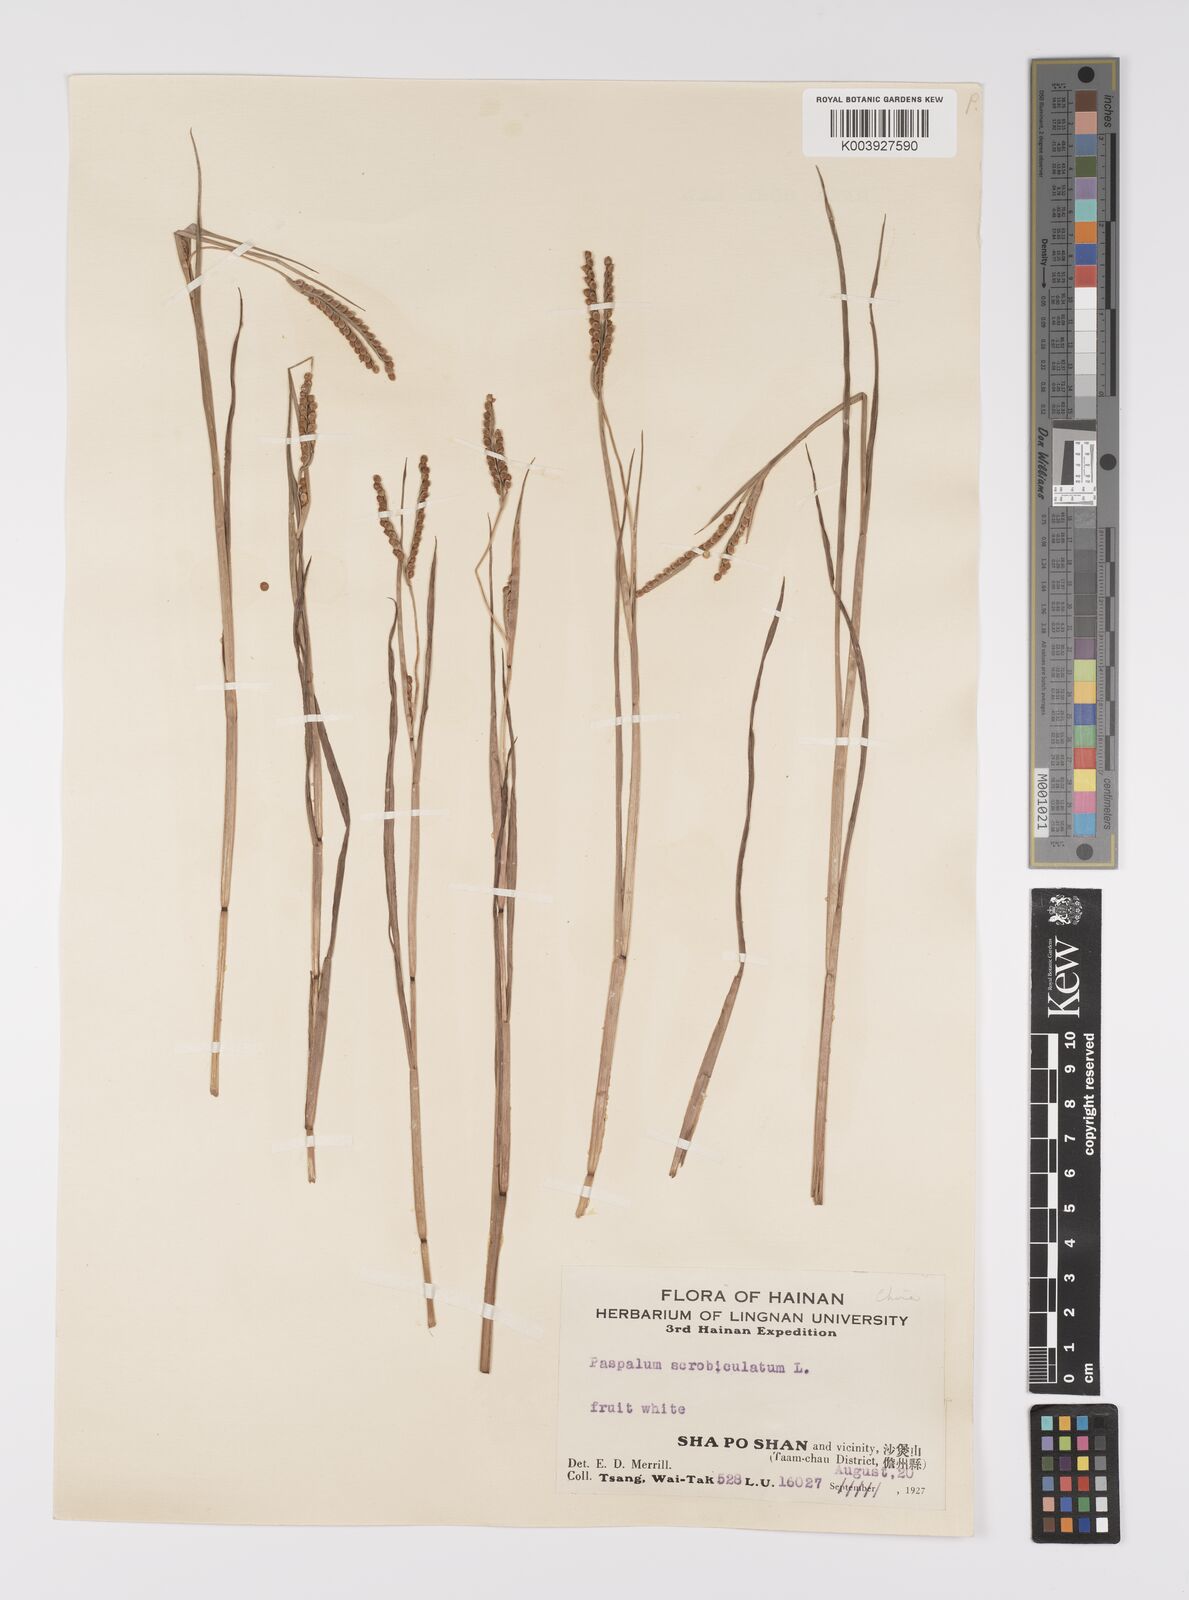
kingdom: Plantae
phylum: Tracheophyta
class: Liliopsida
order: Poales
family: Poaceae
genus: Paspalum
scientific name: Paspalum scrobiculatum
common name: Kodo millet
